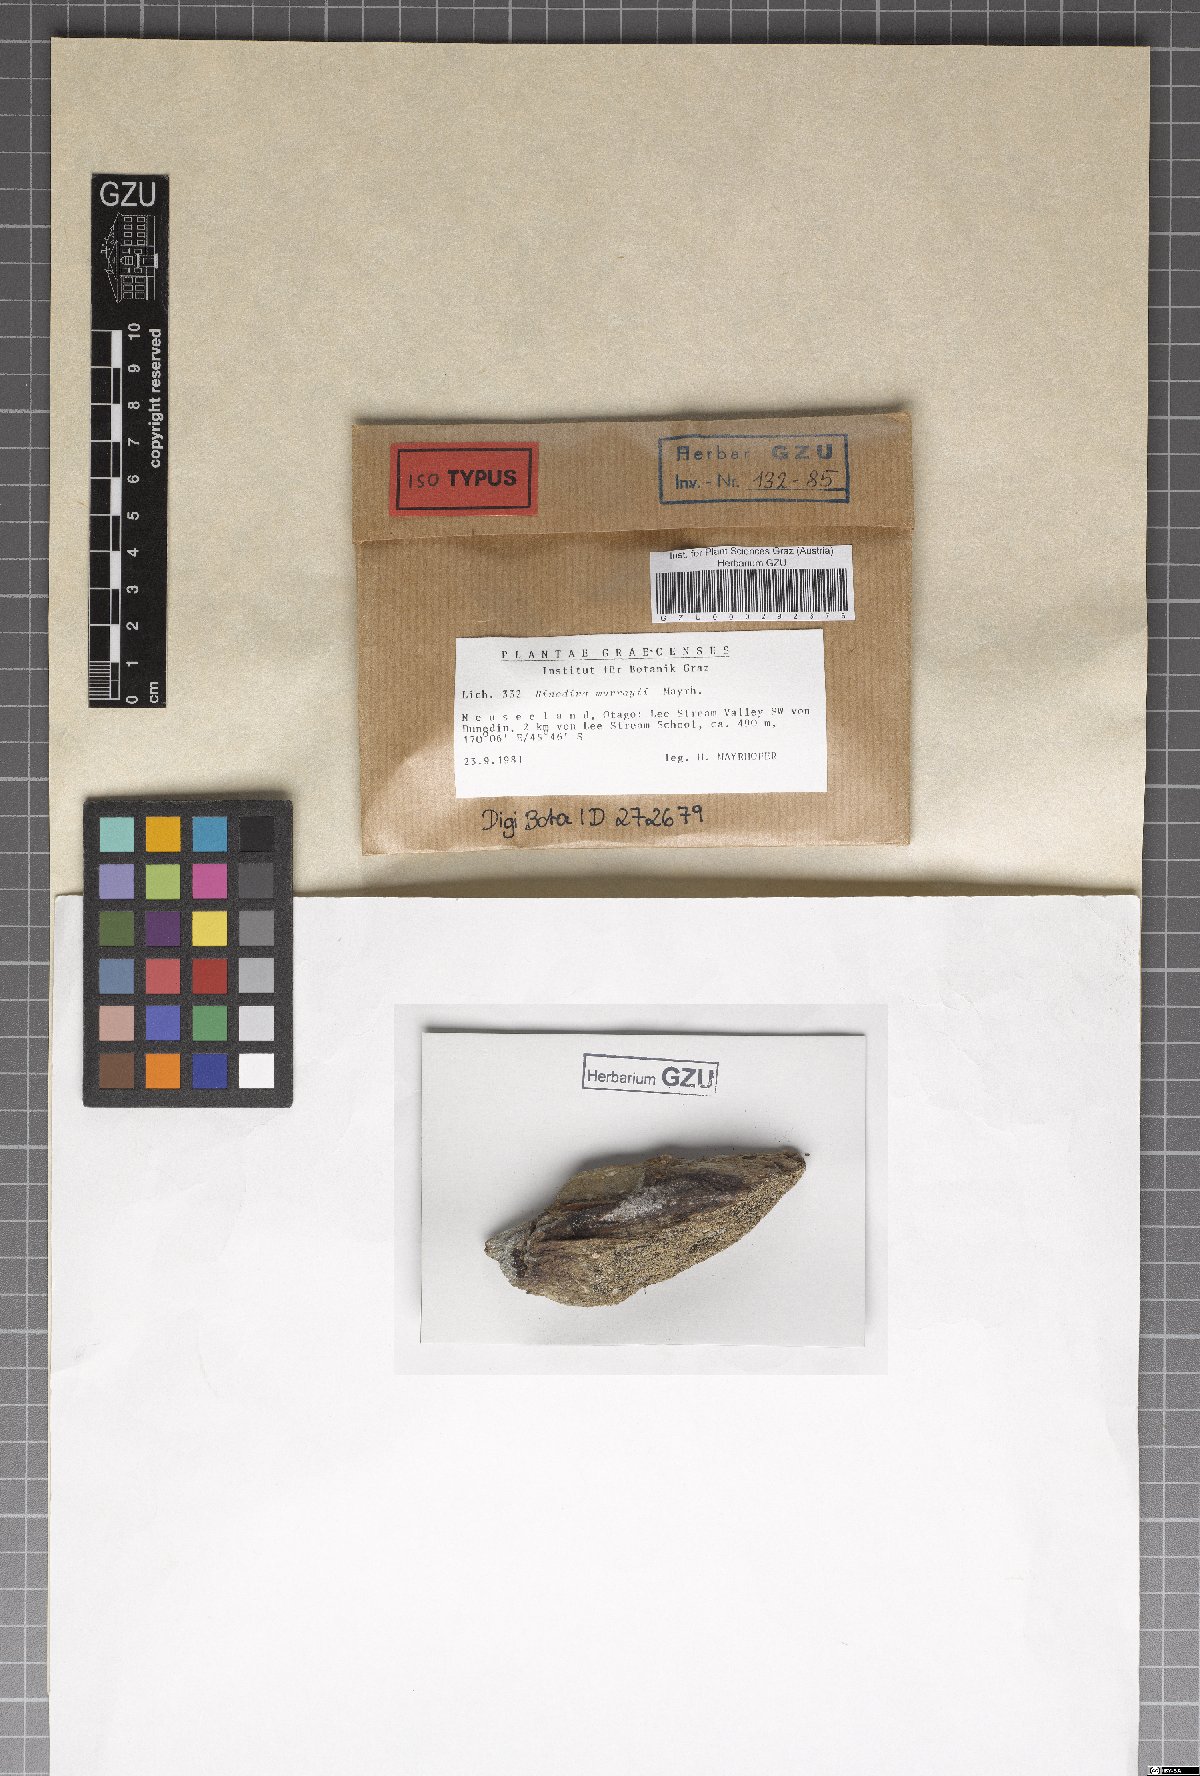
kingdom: Fungi
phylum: Ascomycota
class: Lecanoromycetes
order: Caliciales
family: Physciaceae
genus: Rinodina
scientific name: Rinodina murrayi
